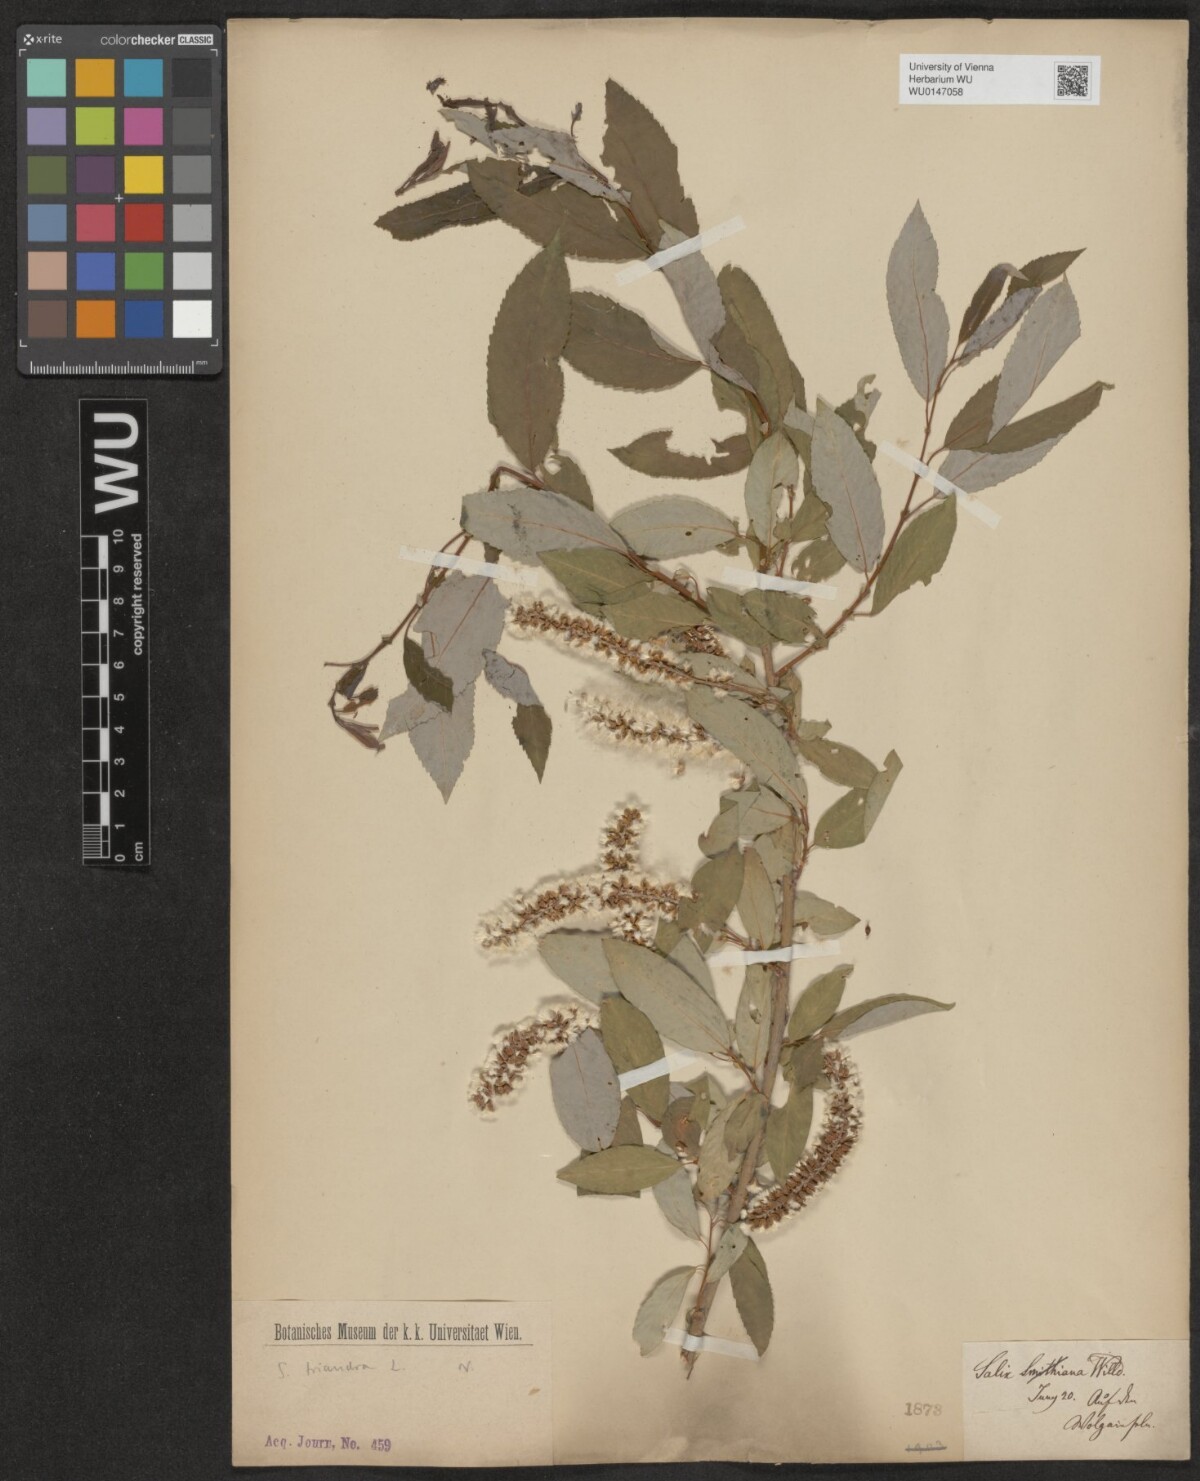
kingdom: Plantae
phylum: Tracheophyta
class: Magnoliopsida
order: Malpighiales
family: Salicaceae
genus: Salix
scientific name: Salix triandra
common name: Almond willow
